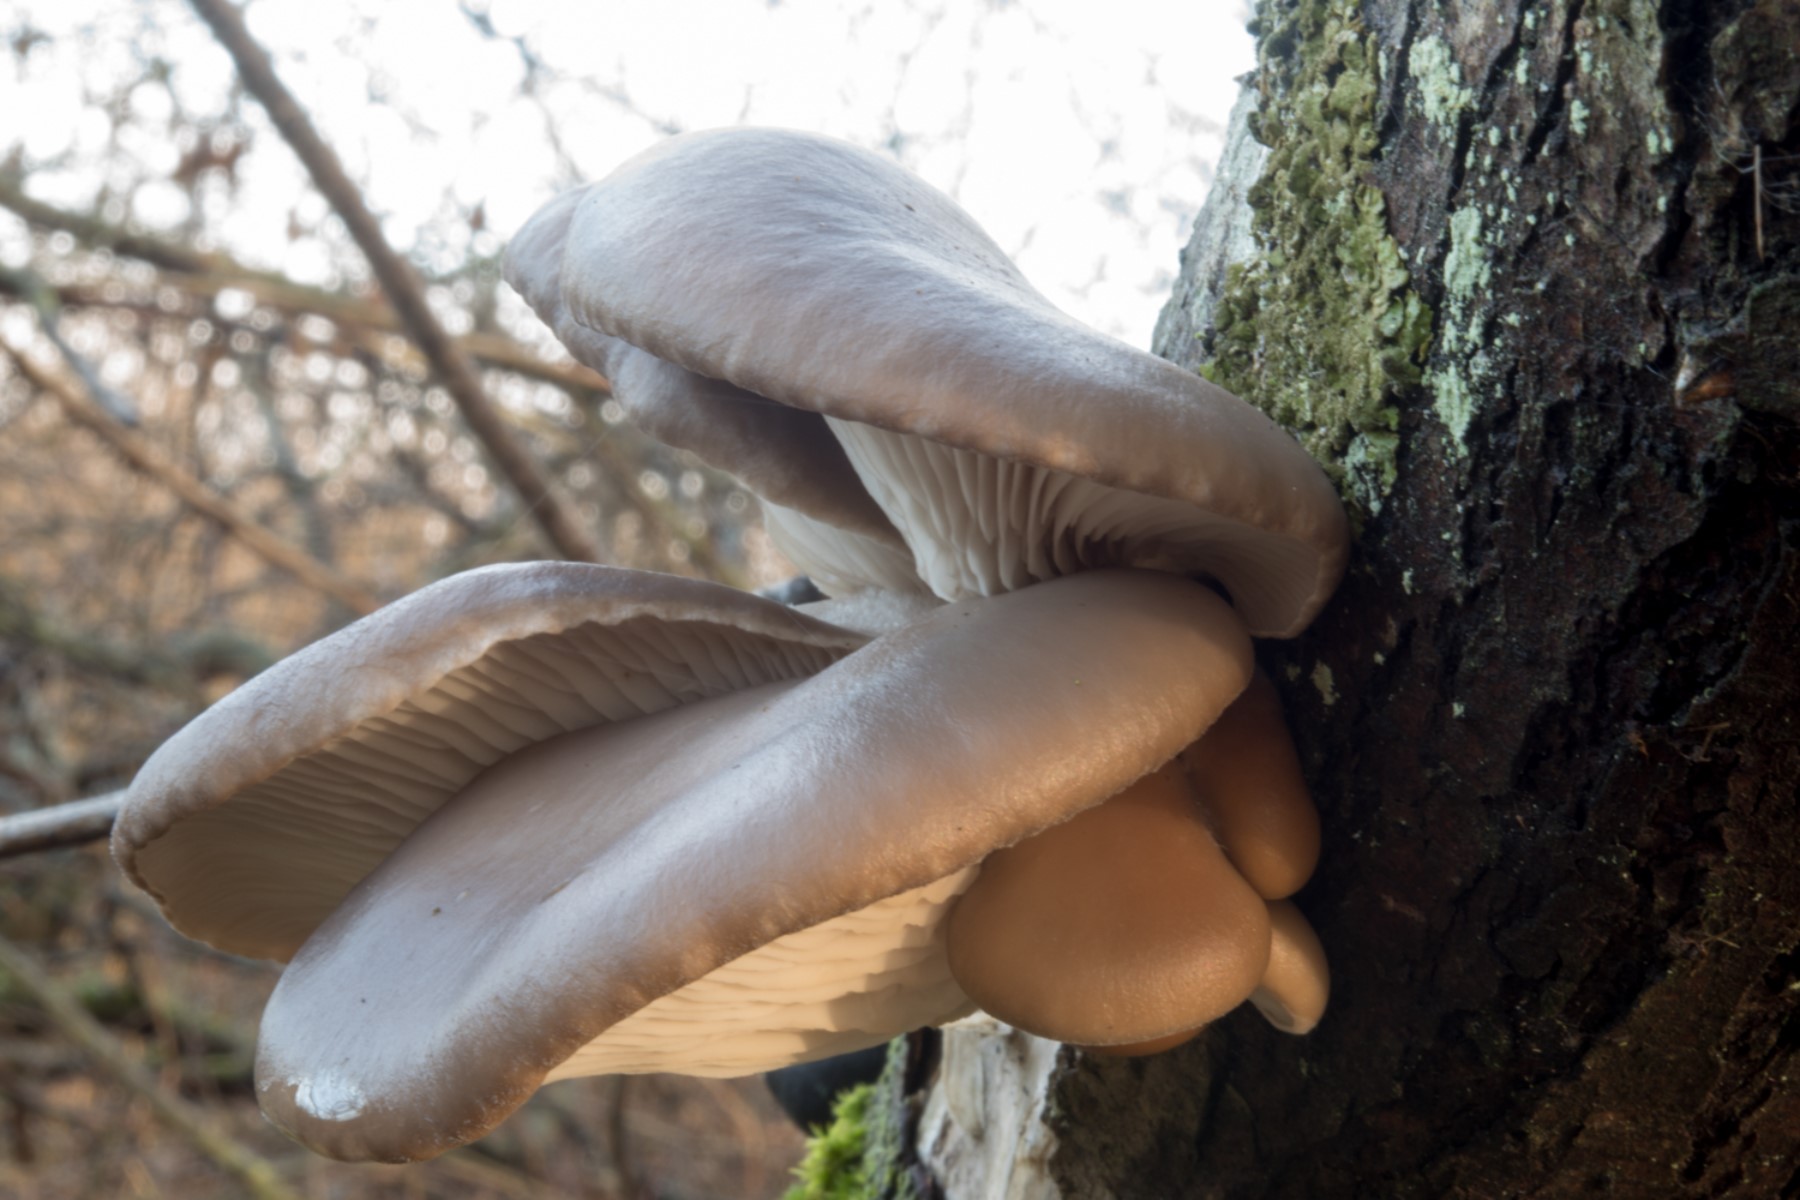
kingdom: Fungi
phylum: Basidiomycota
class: Agaricomycetes
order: Agaricales
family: Pleurotaceae
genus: Pleurotus
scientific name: Pleurotus ostreatus
